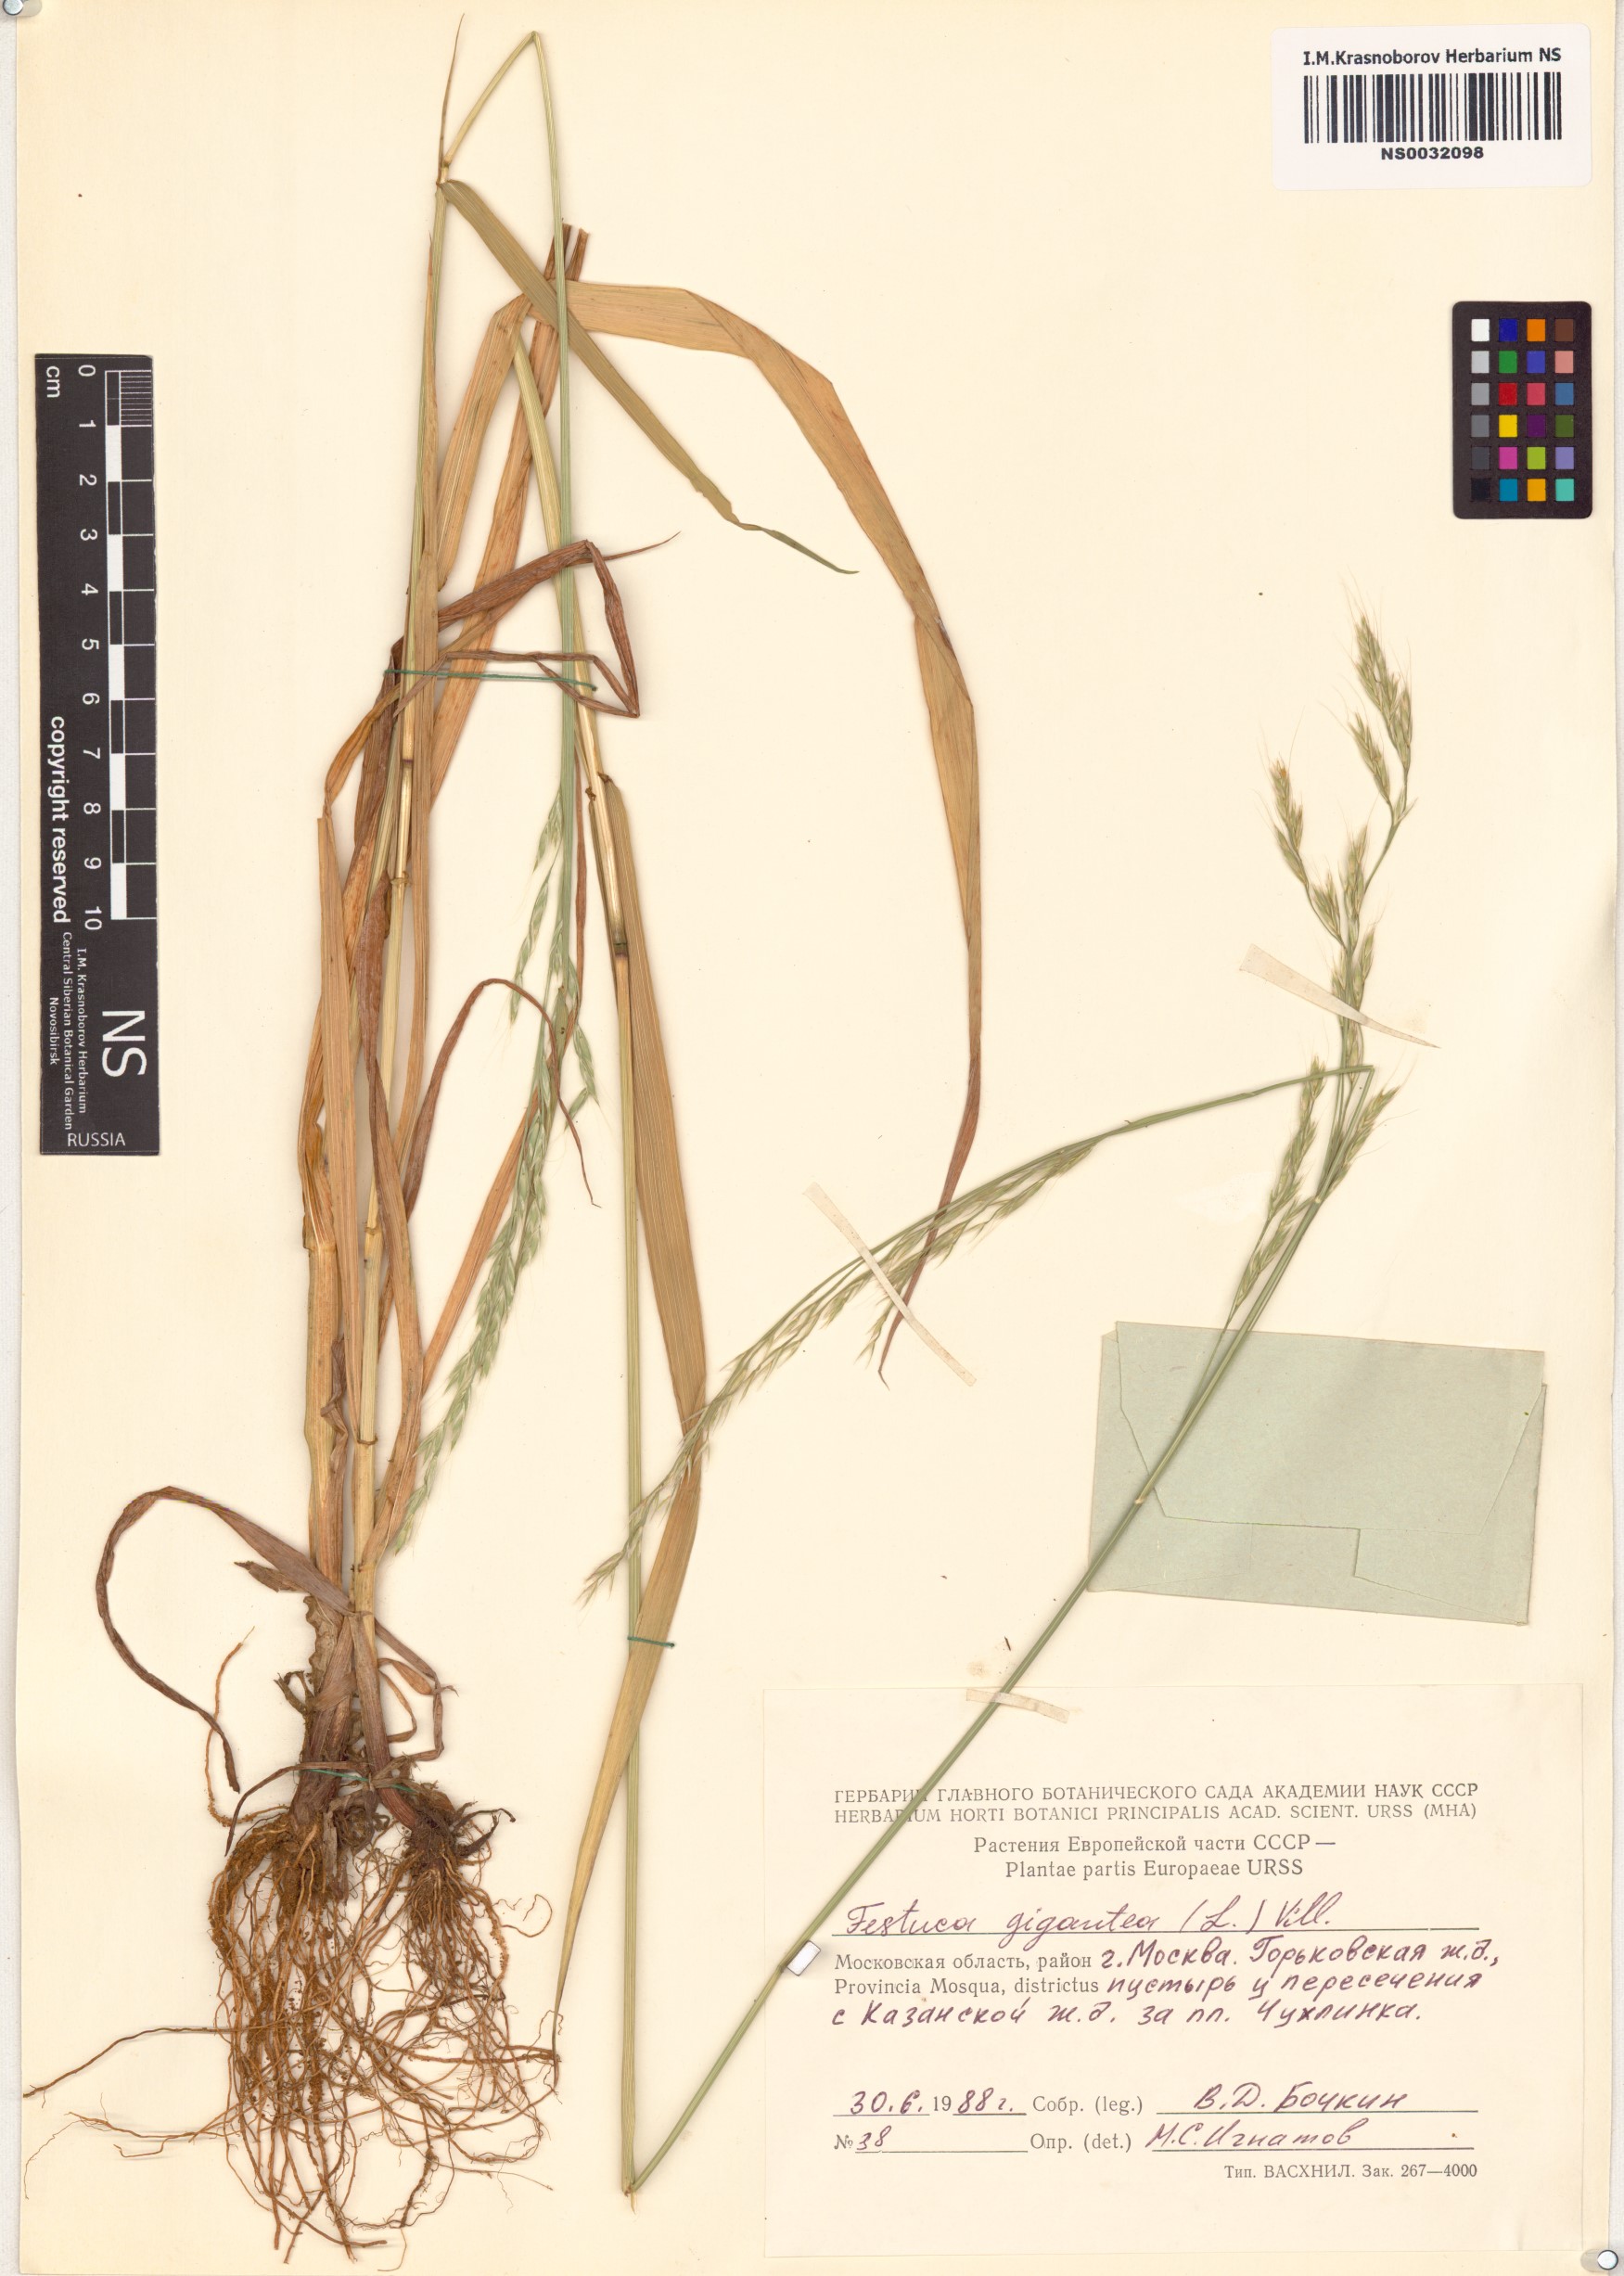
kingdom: Plantae
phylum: Tracheophyta
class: Liliopsida
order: Poales
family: Poaceae
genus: Lolium
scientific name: Lolium giganteum
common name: Giant fescue
